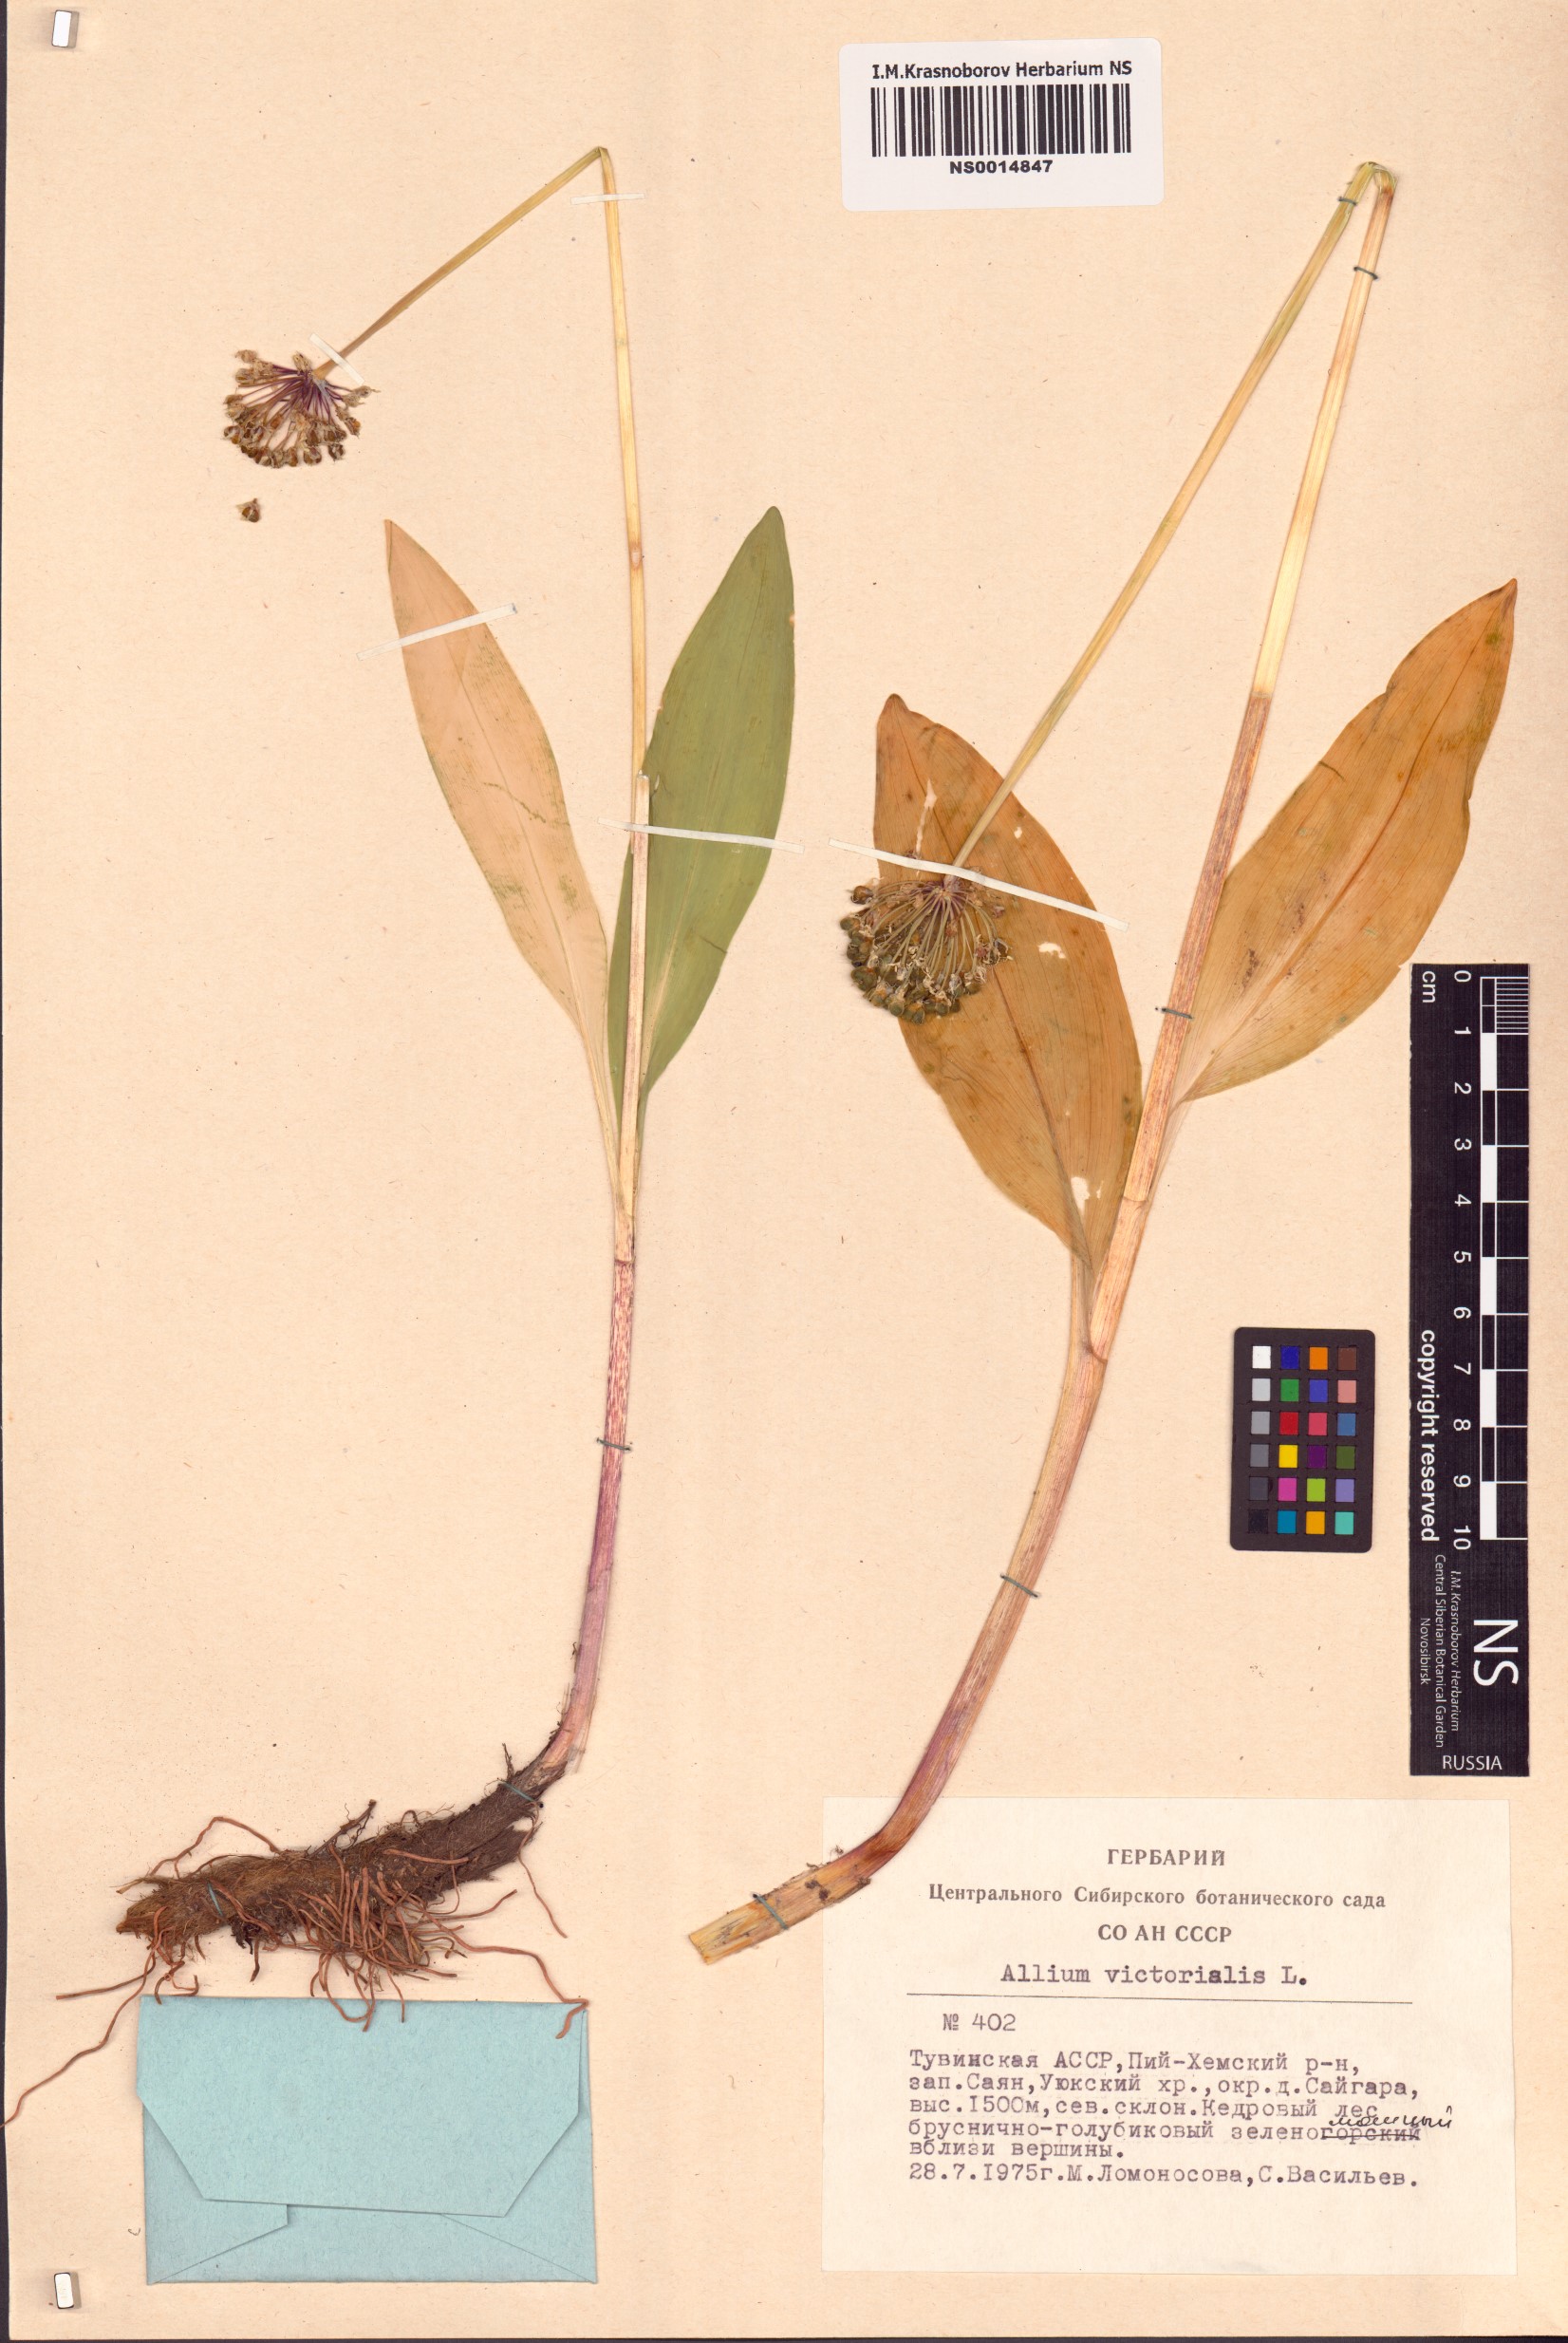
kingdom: Plantae
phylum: Tracheophyta
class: Liliopsida
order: Asparagales
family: Amaryllidaceae
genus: Allium
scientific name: Allium victorialis
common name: Alpine leek
